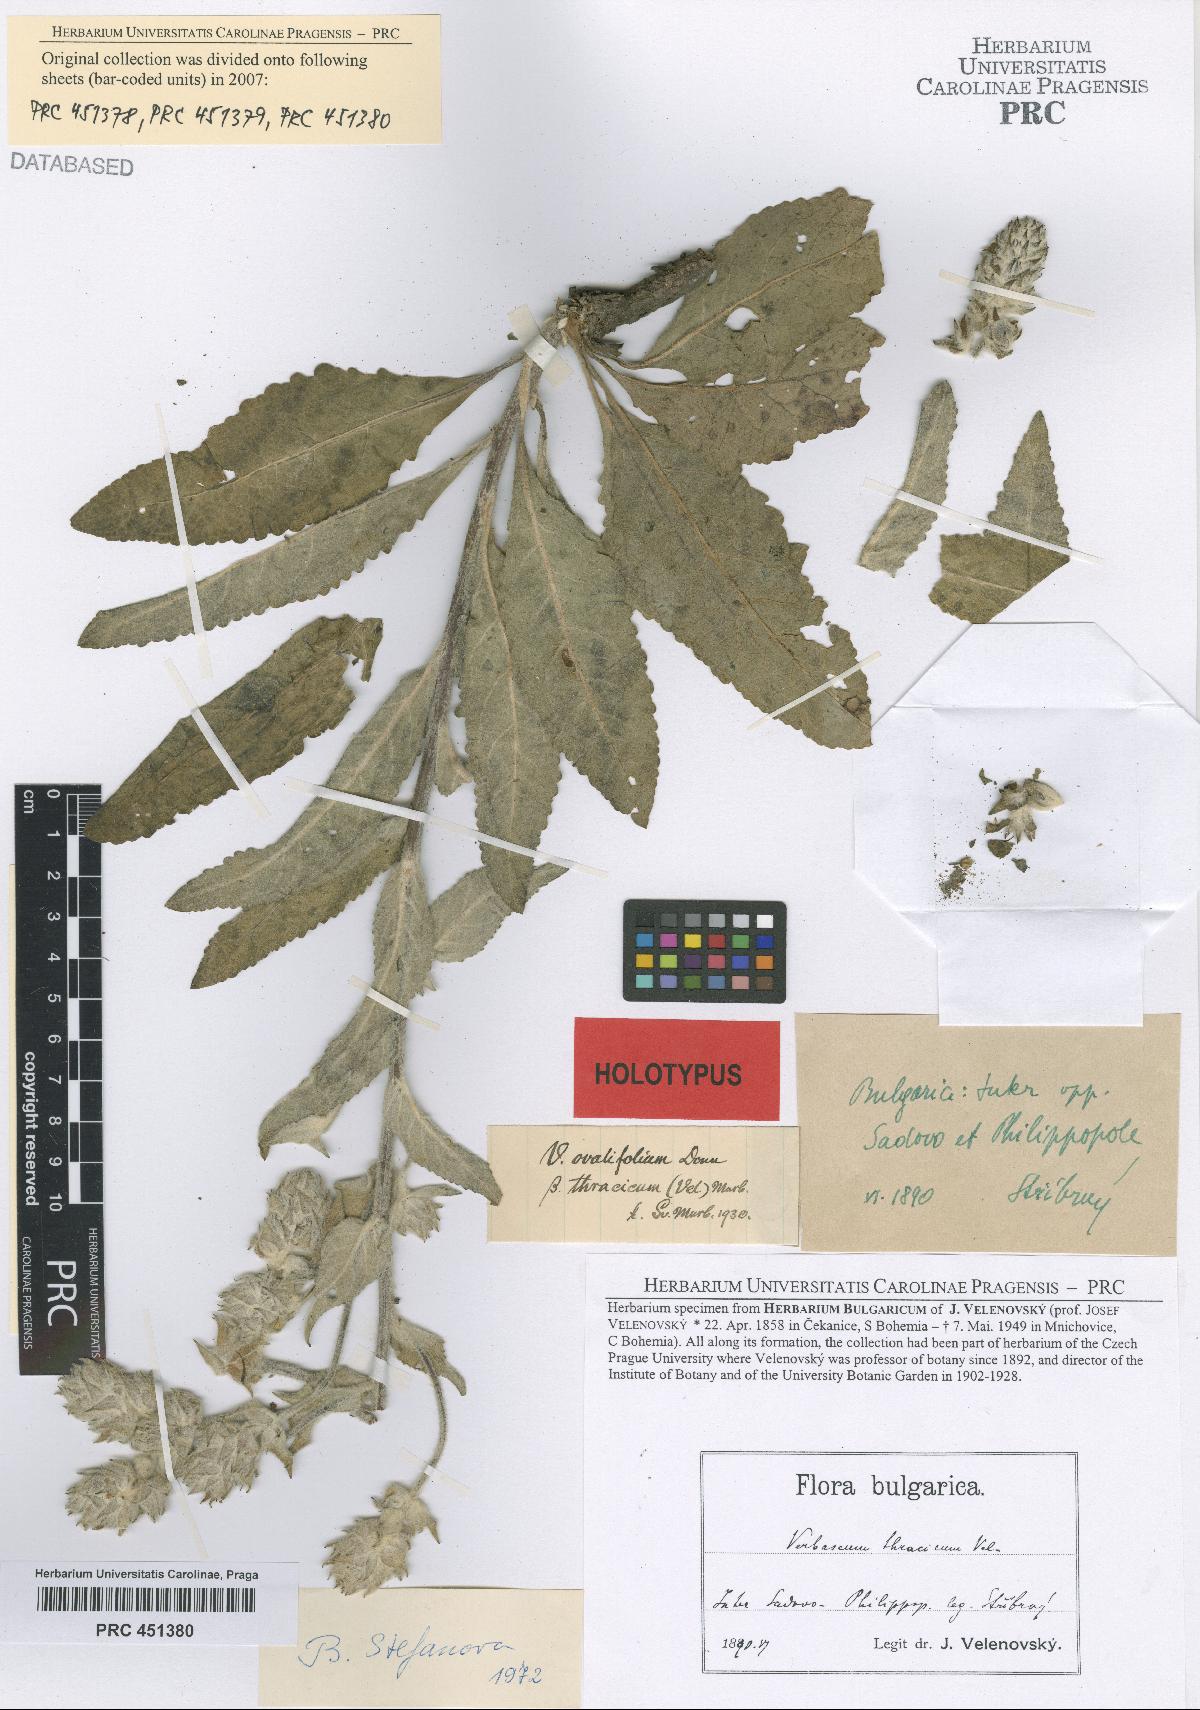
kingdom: Plantae
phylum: Tracheophyta
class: Magnoliopsida
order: Lamiales
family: Scrophulariaceae
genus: Verbascum
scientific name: Verbascum ovalifolium
